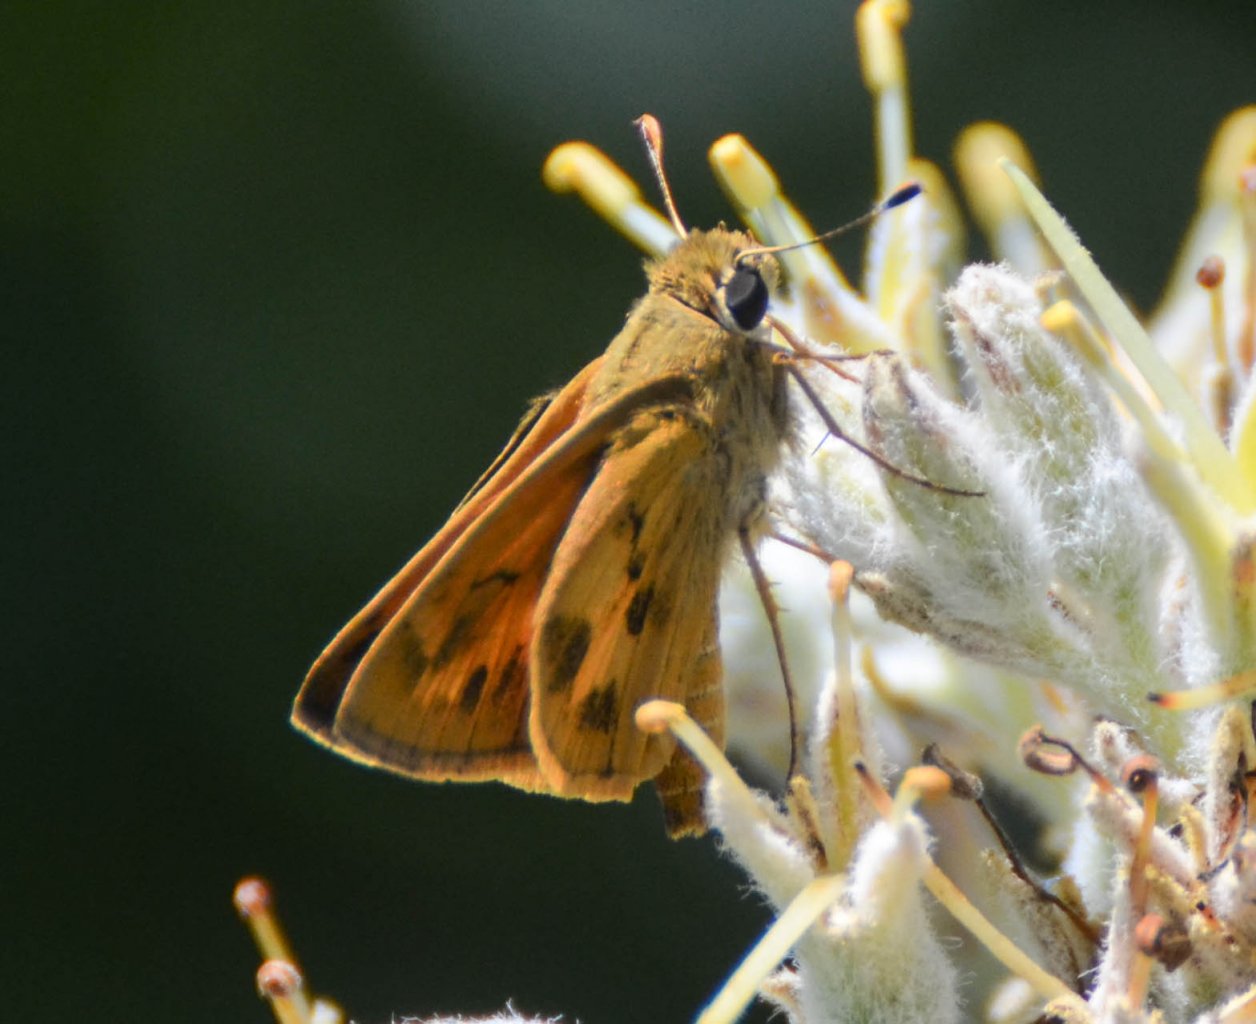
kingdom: Animalia
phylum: Arthropoda
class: Insecta
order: Lepidoptera
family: Hesperiidae
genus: Polites
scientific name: Polites vibex
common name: Whirlabout
